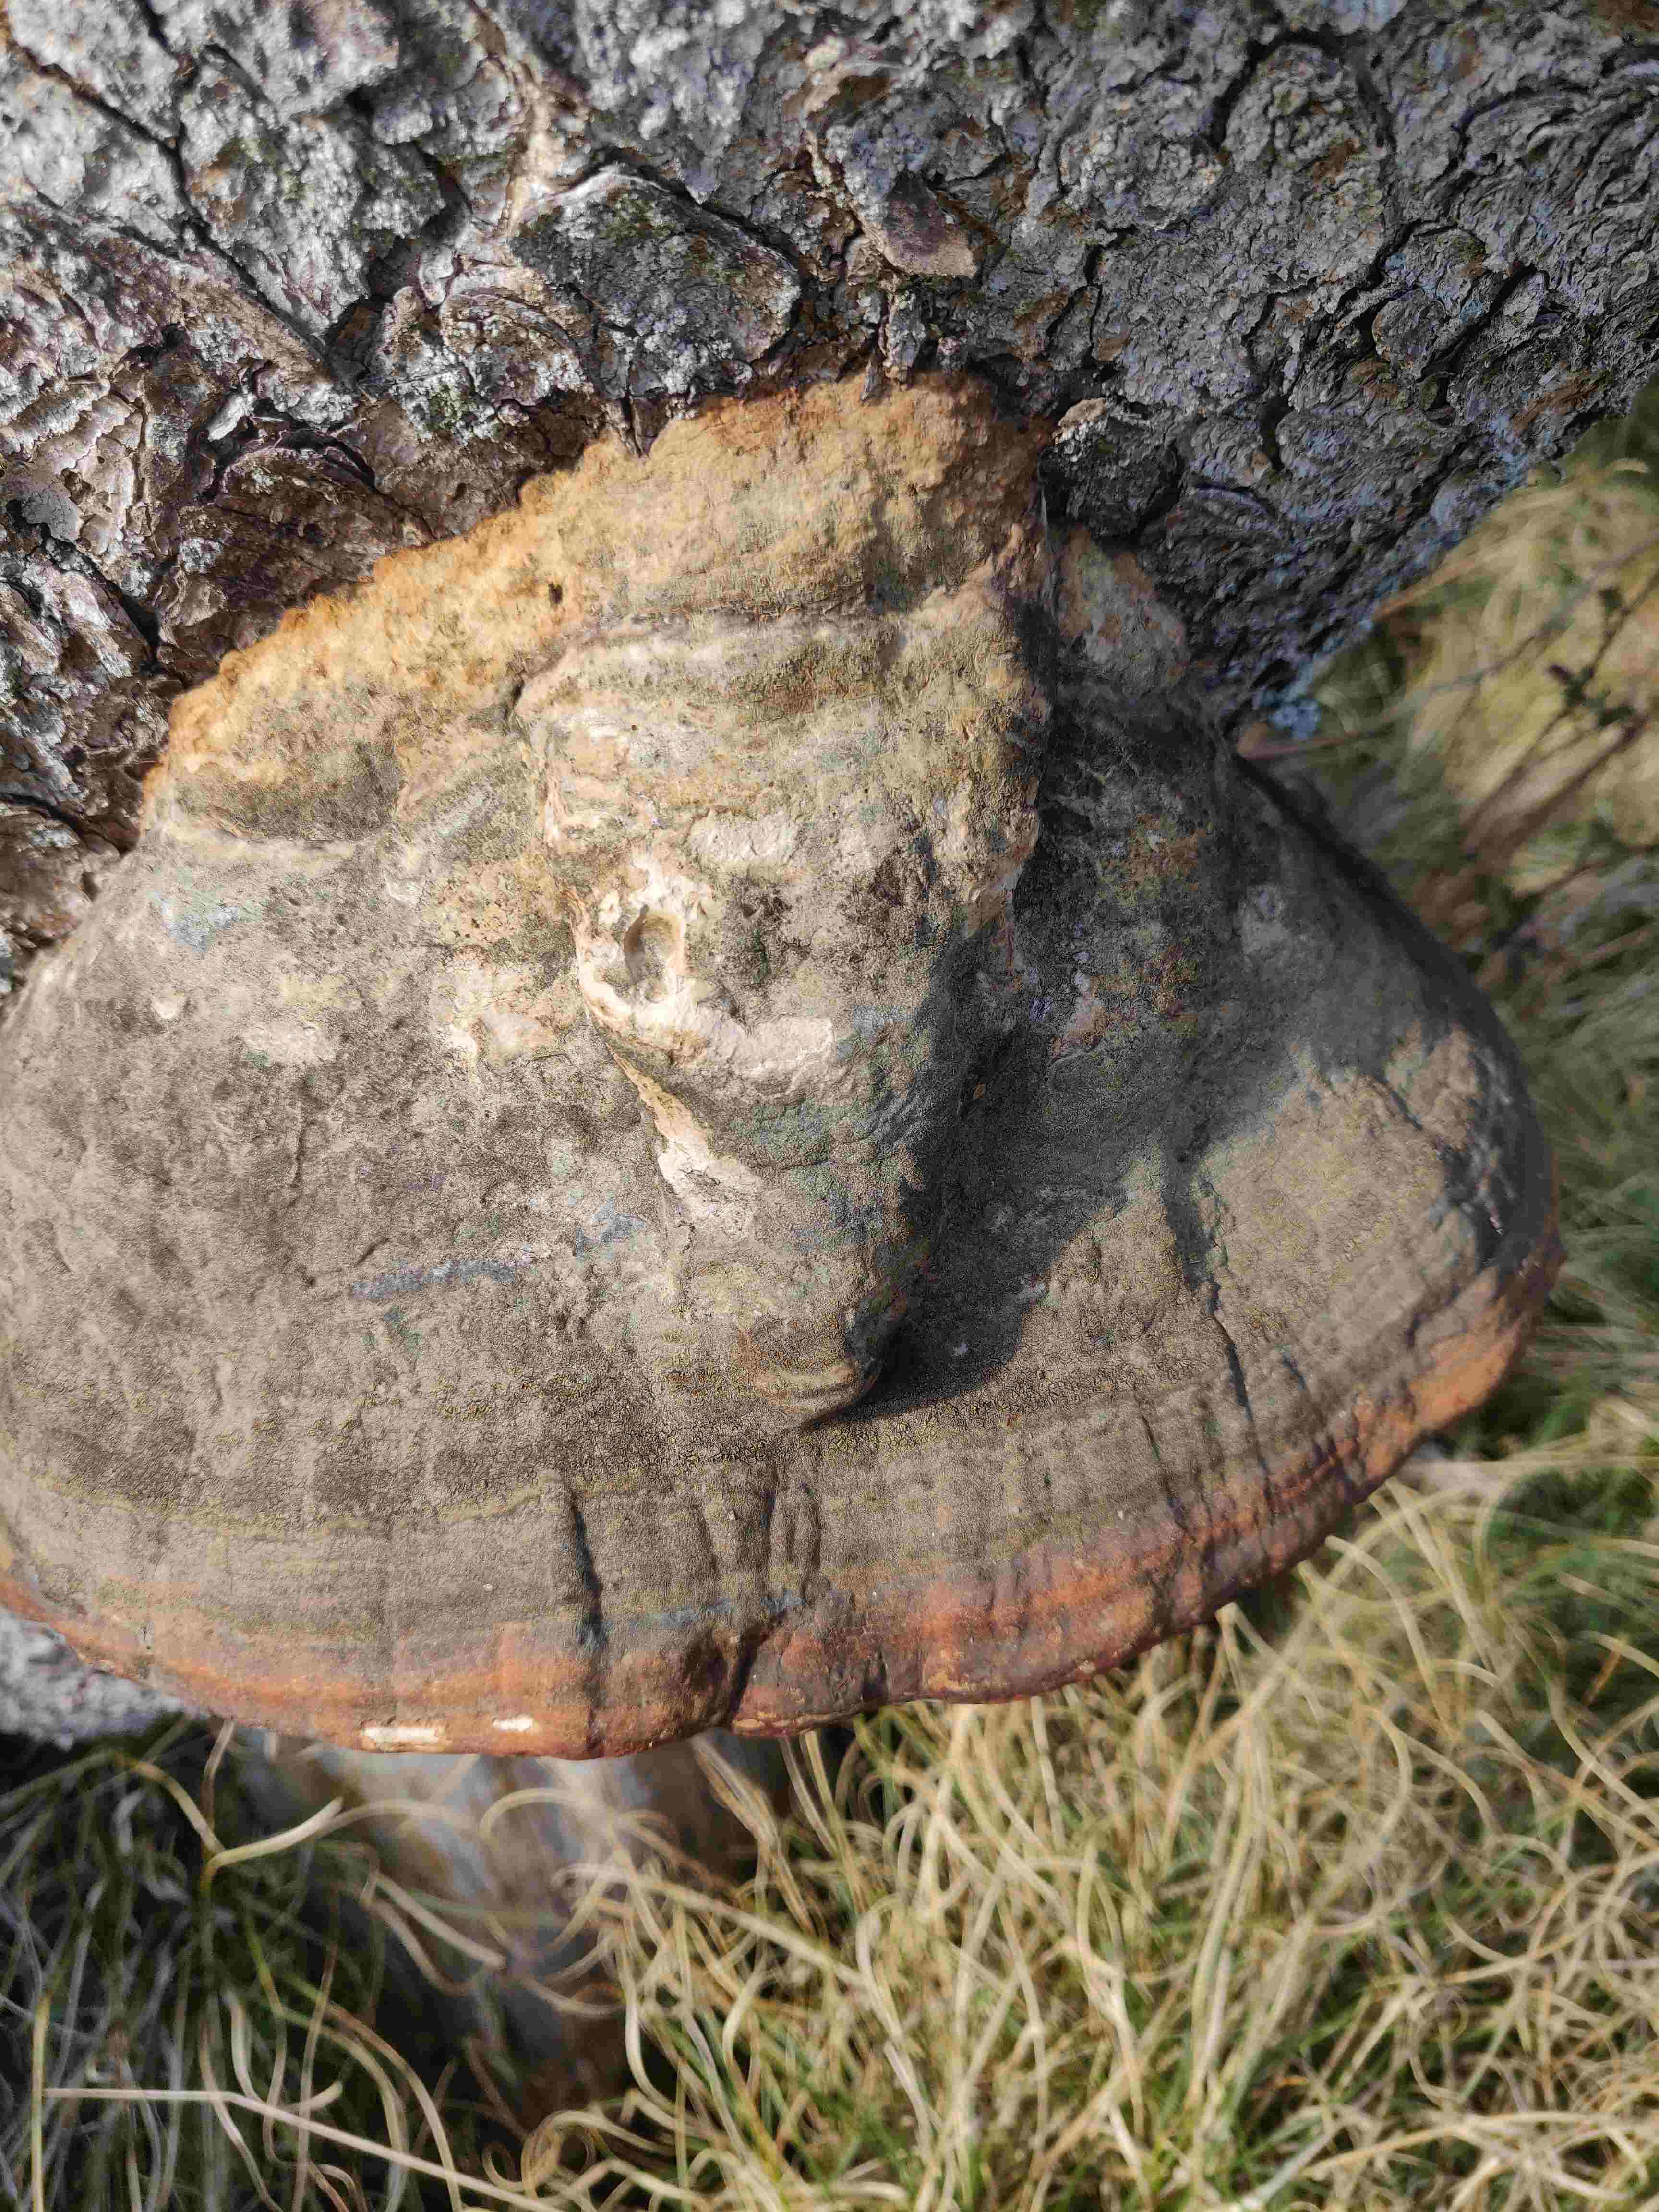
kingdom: Fungi
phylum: Basidiomycota
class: Agaricomycetes
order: Polyporales
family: Fomitopsidaceae
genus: Fomitopsis
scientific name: Fomitopsis pinicola
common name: randbæltet hovporesvamp
